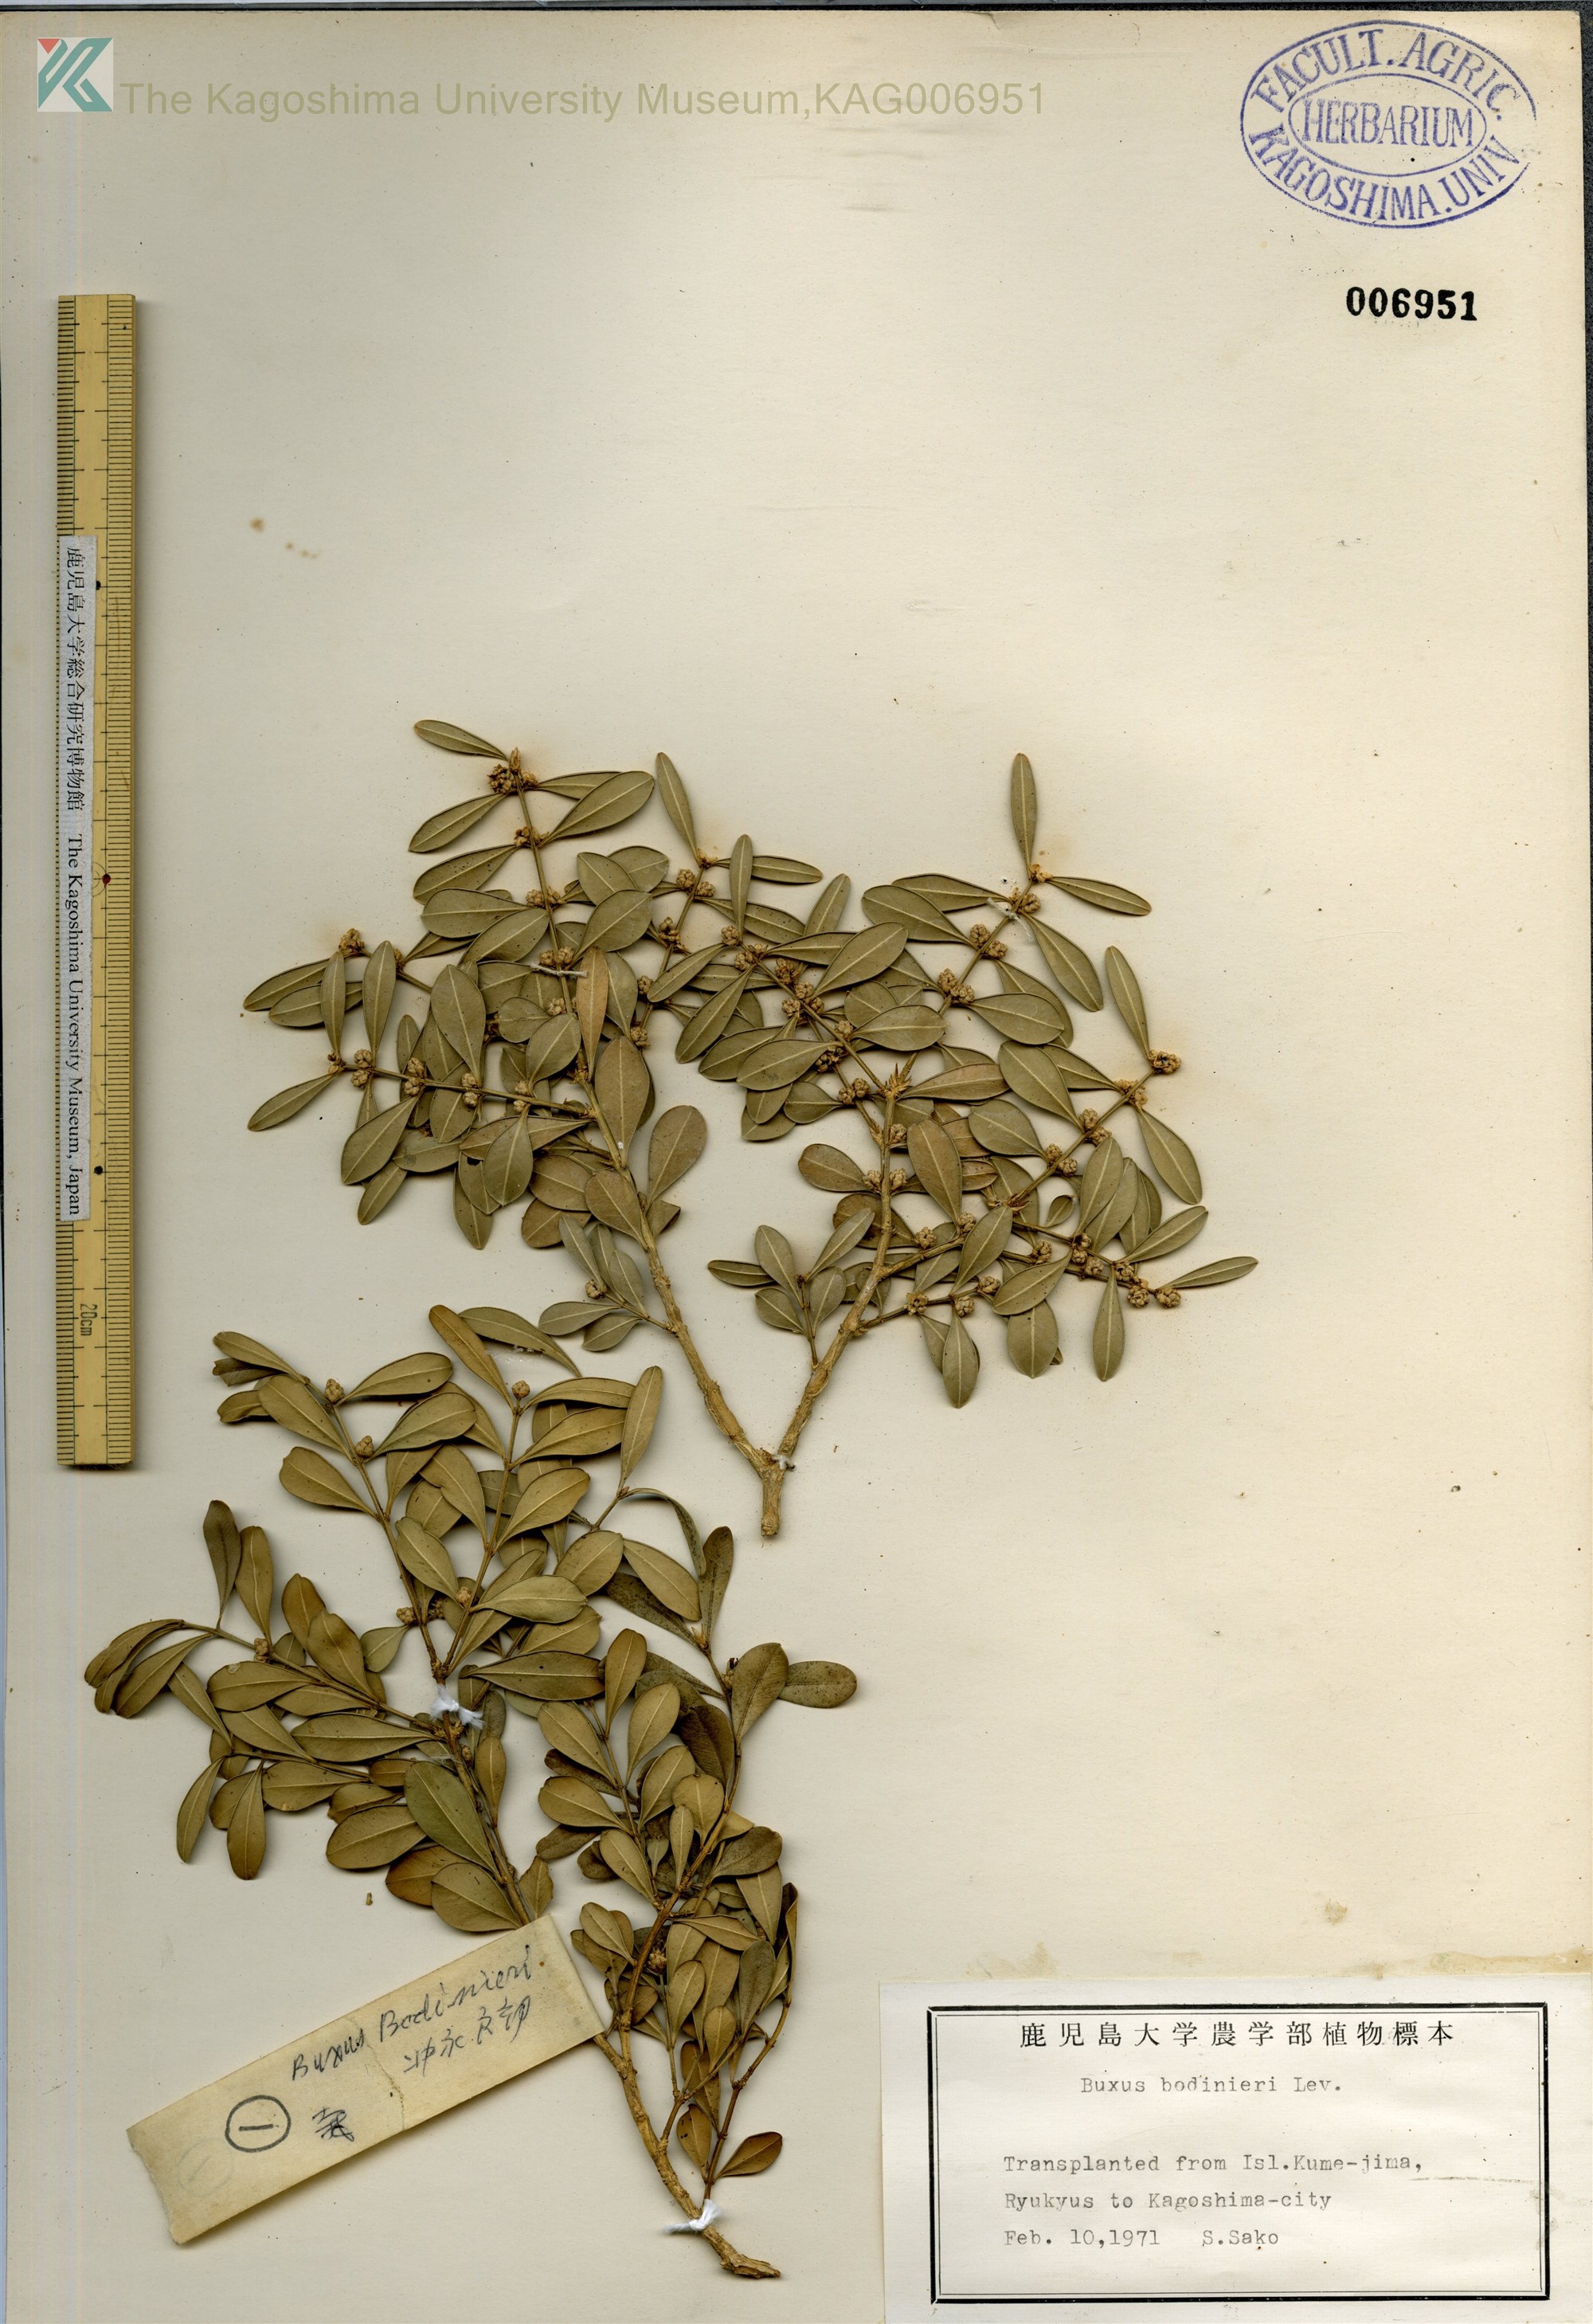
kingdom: Plantae
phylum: Tracheophyta
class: Magnoliopsida
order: Buxales
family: Buxaceae
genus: Buxus
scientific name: Buxus bodinieri
